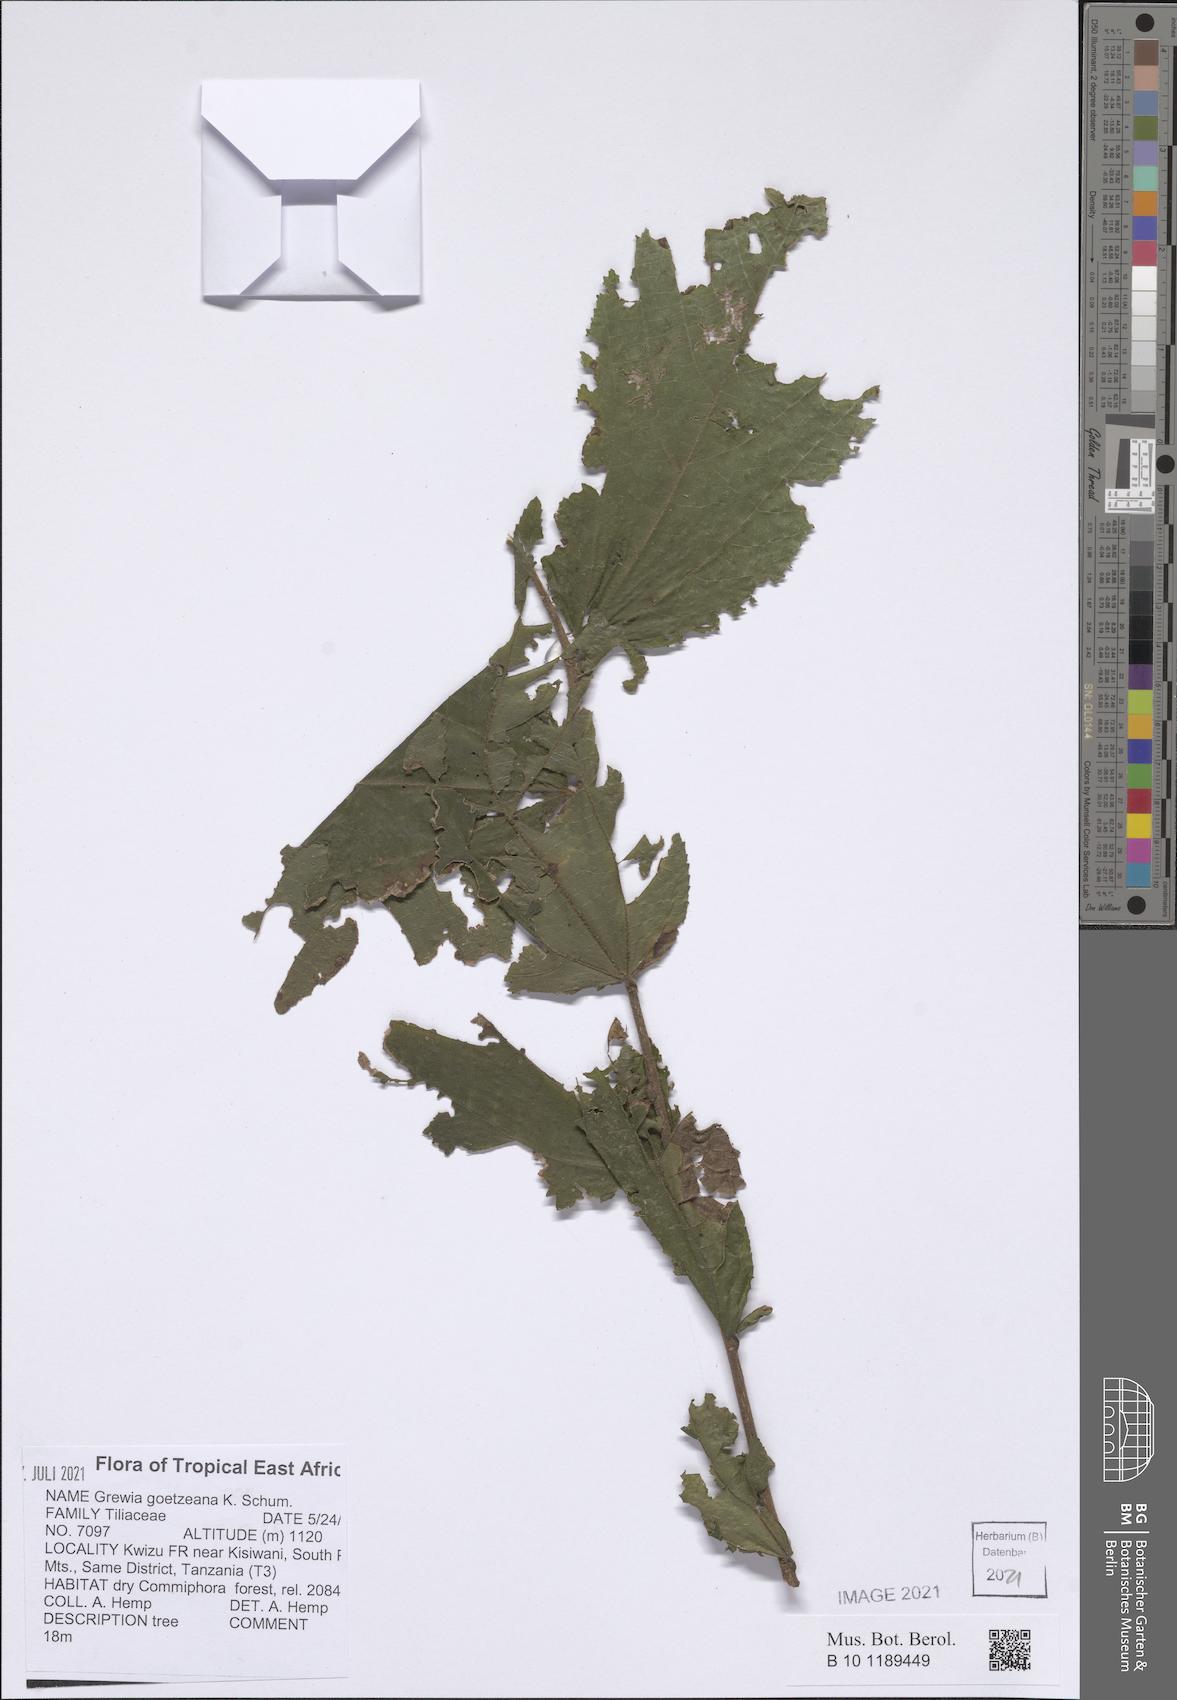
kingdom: Plantae
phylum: Tracheophyta
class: Magnoliopsida
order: Malvales
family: Malvaceae
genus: Grewia
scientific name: Grewia goetzeana
